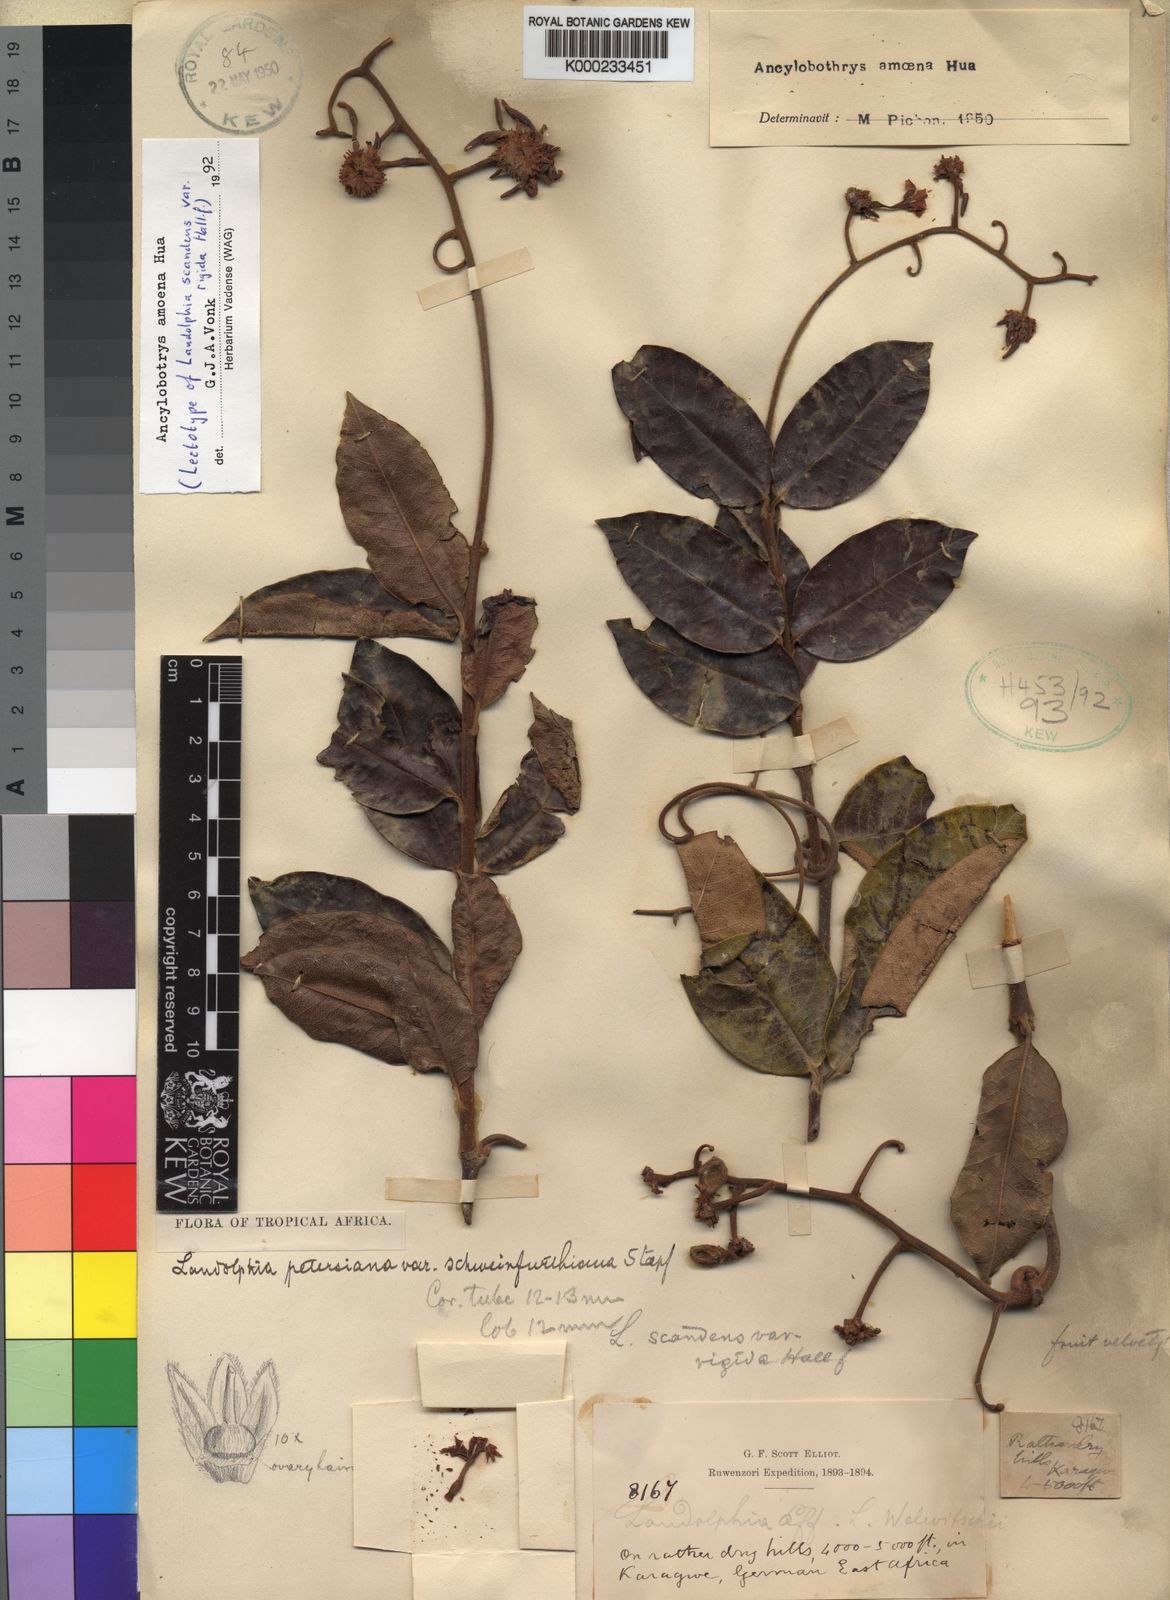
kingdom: Plantae
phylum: Tracheophyta
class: Magnoliopsida
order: Gentianales
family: Apocynaceae
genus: Ancylobothrys
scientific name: Ancylobothrys scandens
